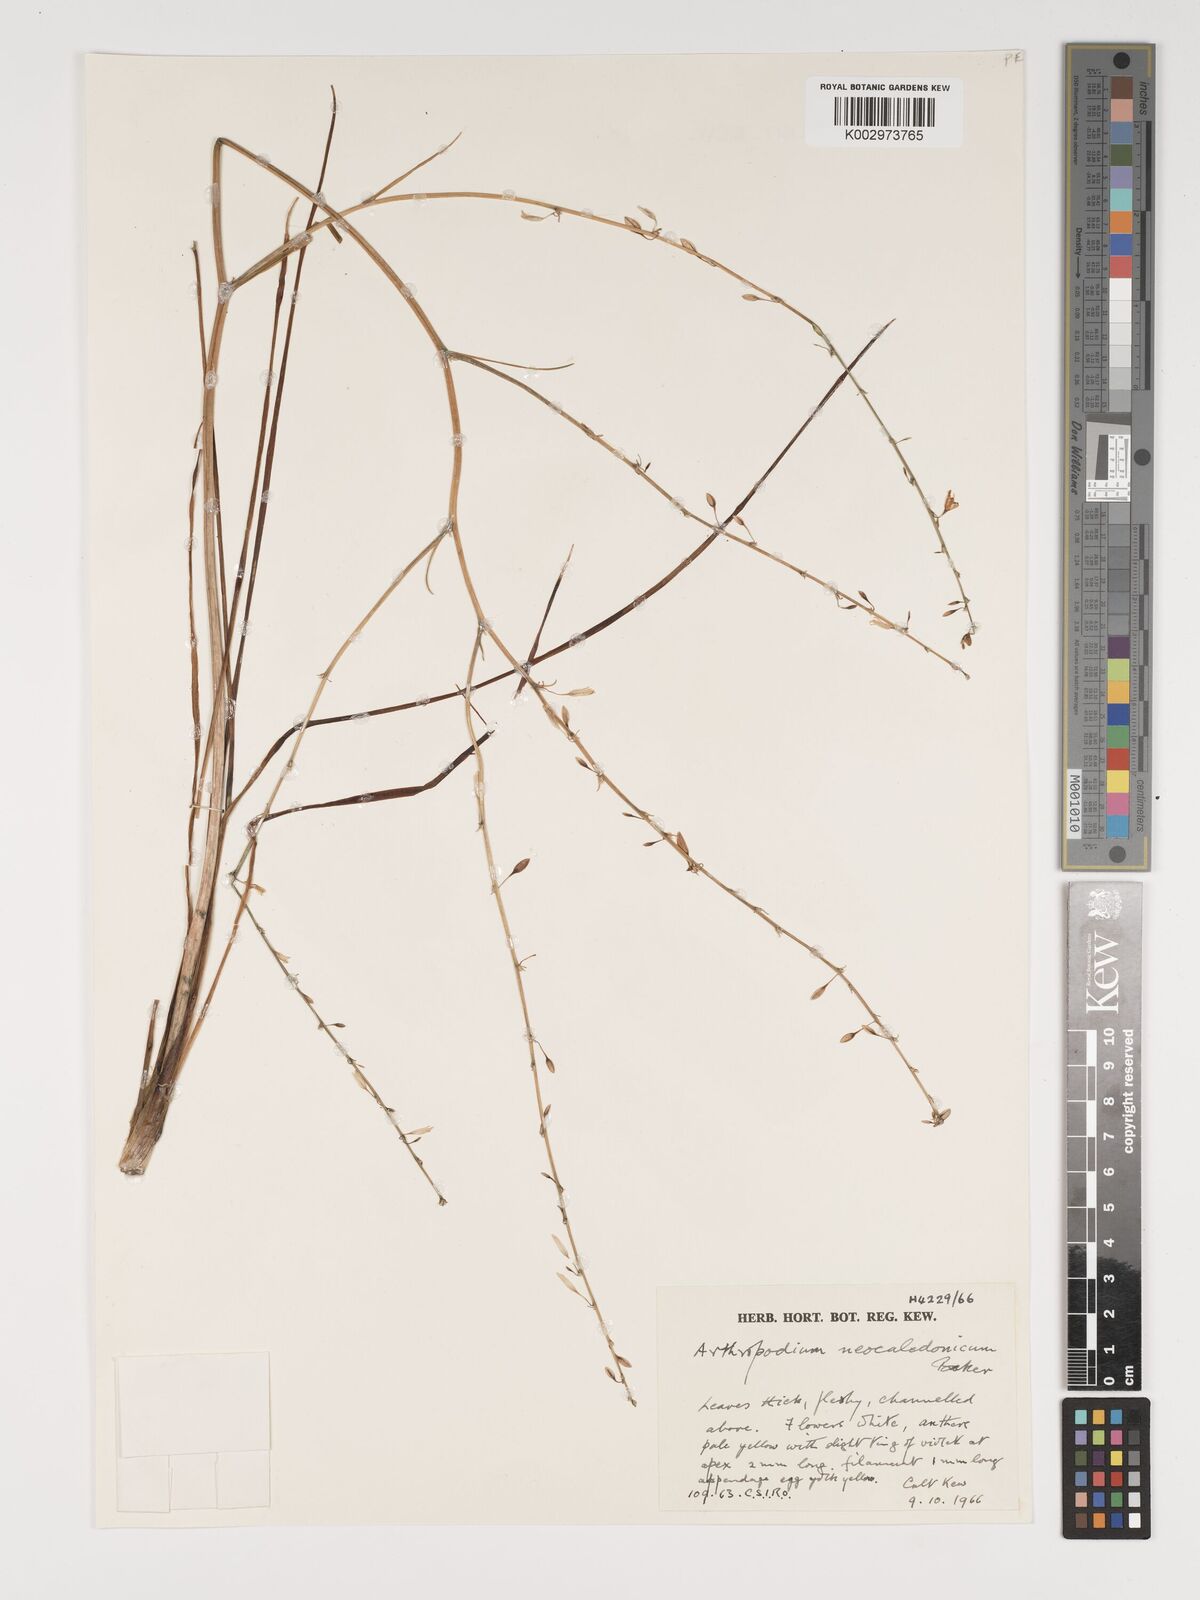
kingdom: Plantae
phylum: Tracheophyta
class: Liliopsida
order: Asparagales
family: Asparagaceae
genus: Arthropodium
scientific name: Arthropodium neocaledonicum
